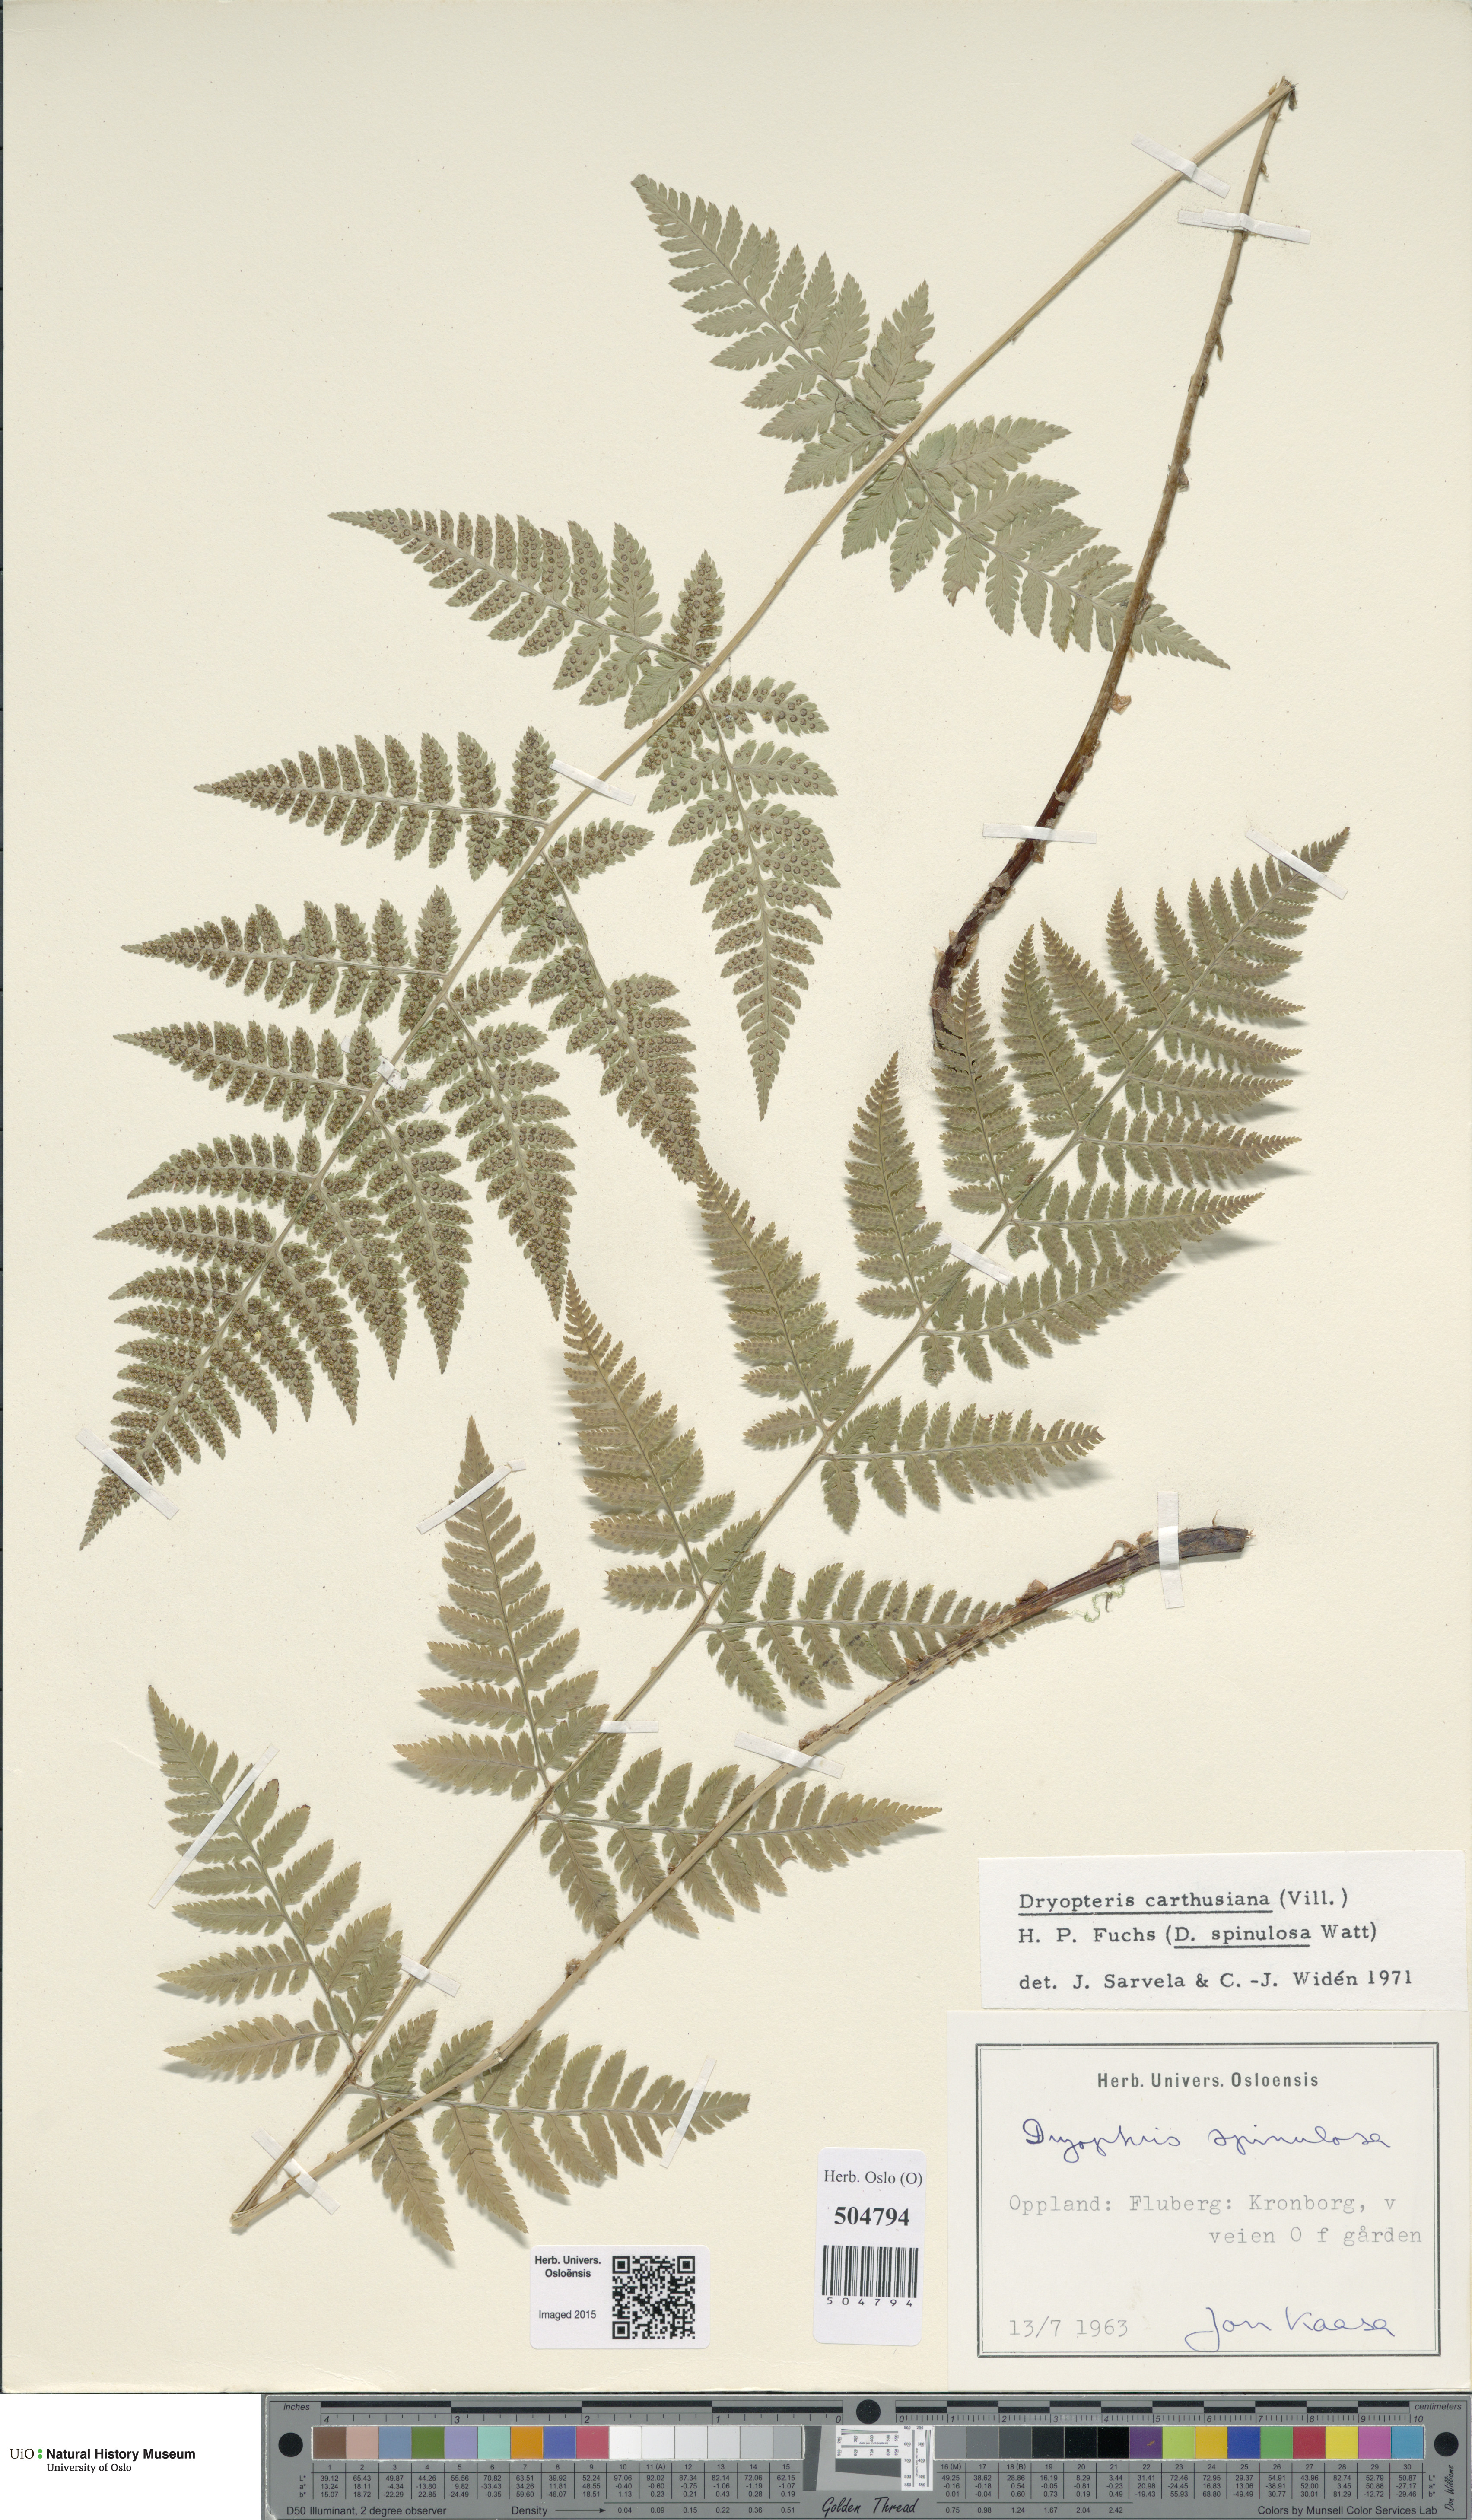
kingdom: Plantae
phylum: Tracheophyta
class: Polypodiopsida
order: Polypodiales
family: Dryopteridaceae
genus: Dryopteris
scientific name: Dryopteris carthusiana
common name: Narrow buckler-fern
